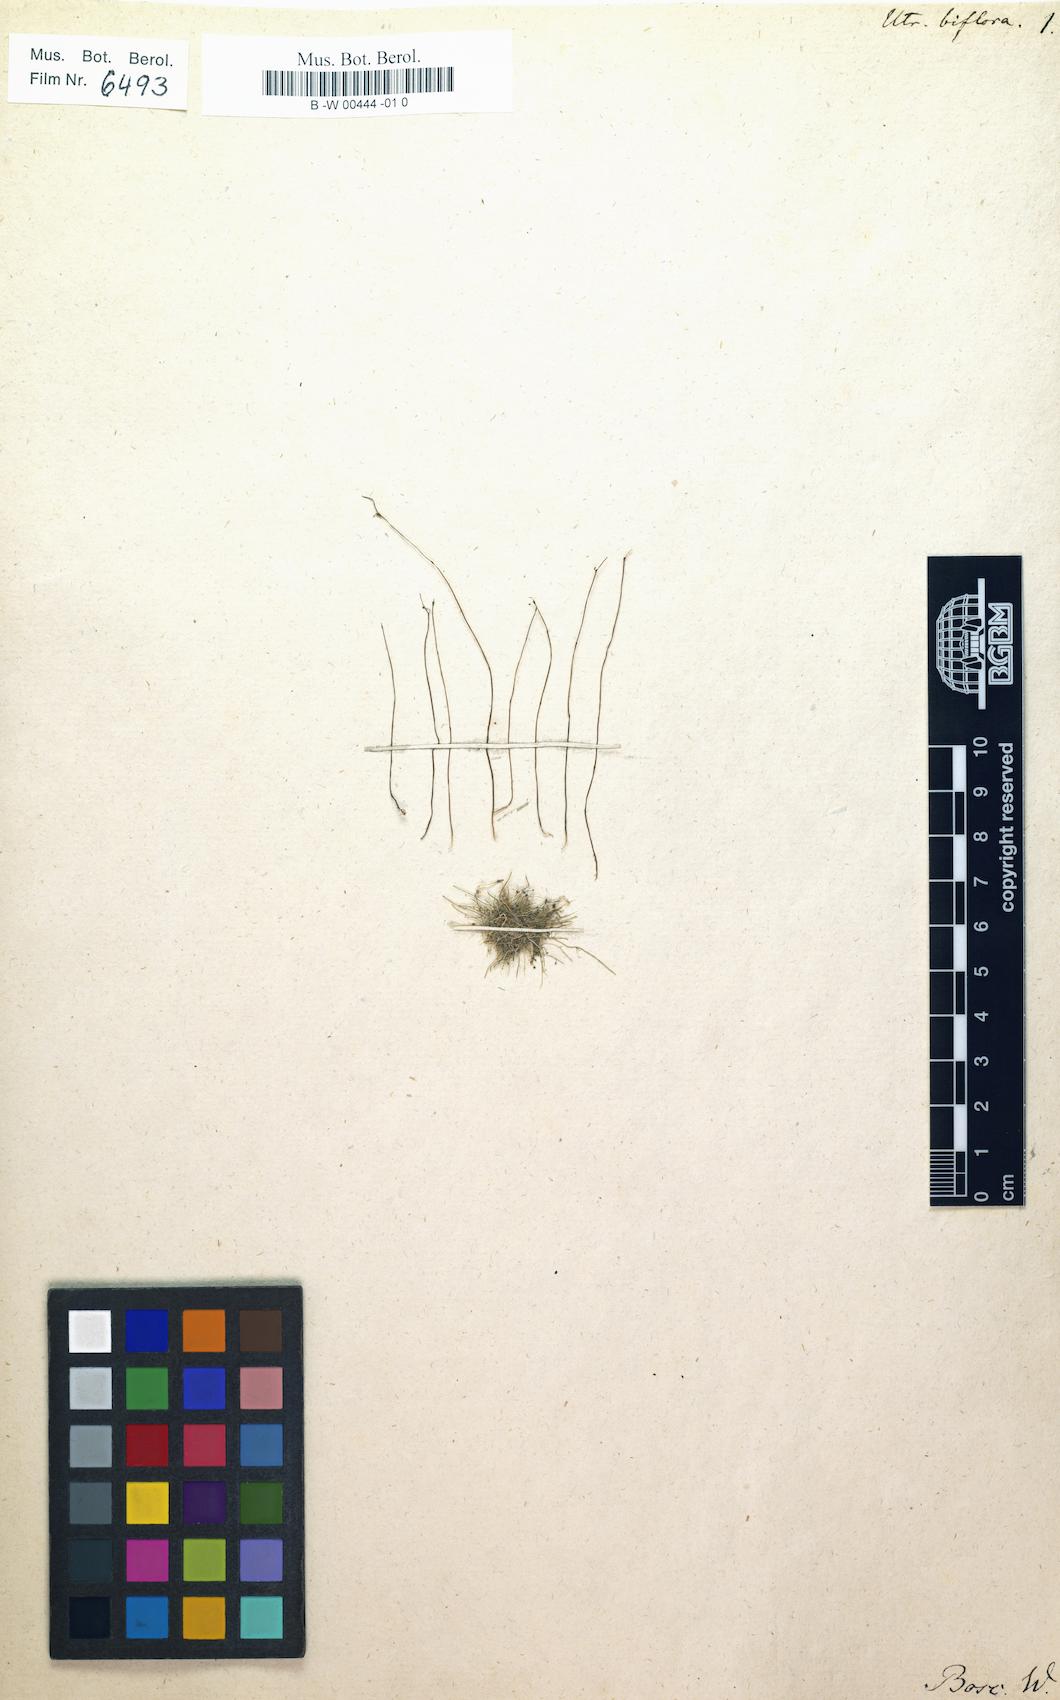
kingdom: Plantae
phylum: Tracheophyta
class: Magnoliopsida
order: Lamiales
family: Lentibulariaceae
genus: Utricularia
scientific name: Utricularia biflora
